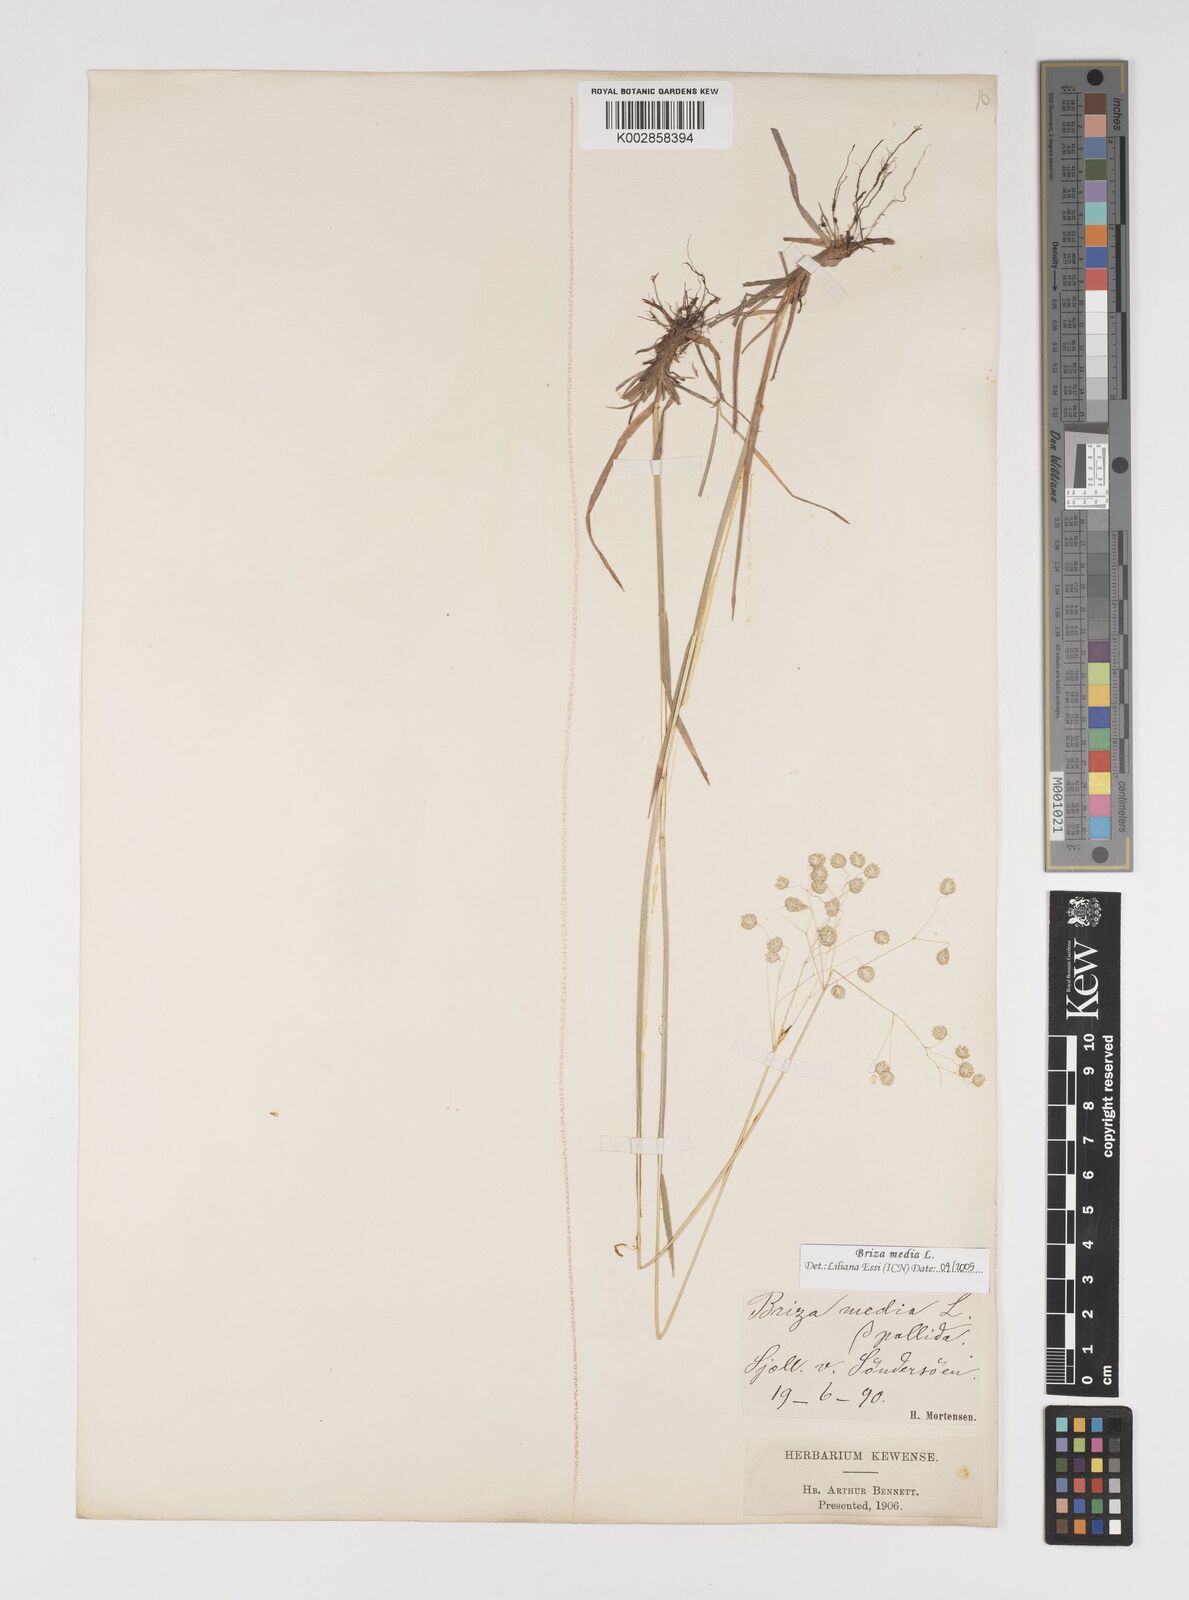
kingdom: Plantae
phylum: Tracheophyta
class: Liliopsida
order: Poales
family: Poaceae
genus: Briza
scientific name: Briza media
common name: Quaking grass
